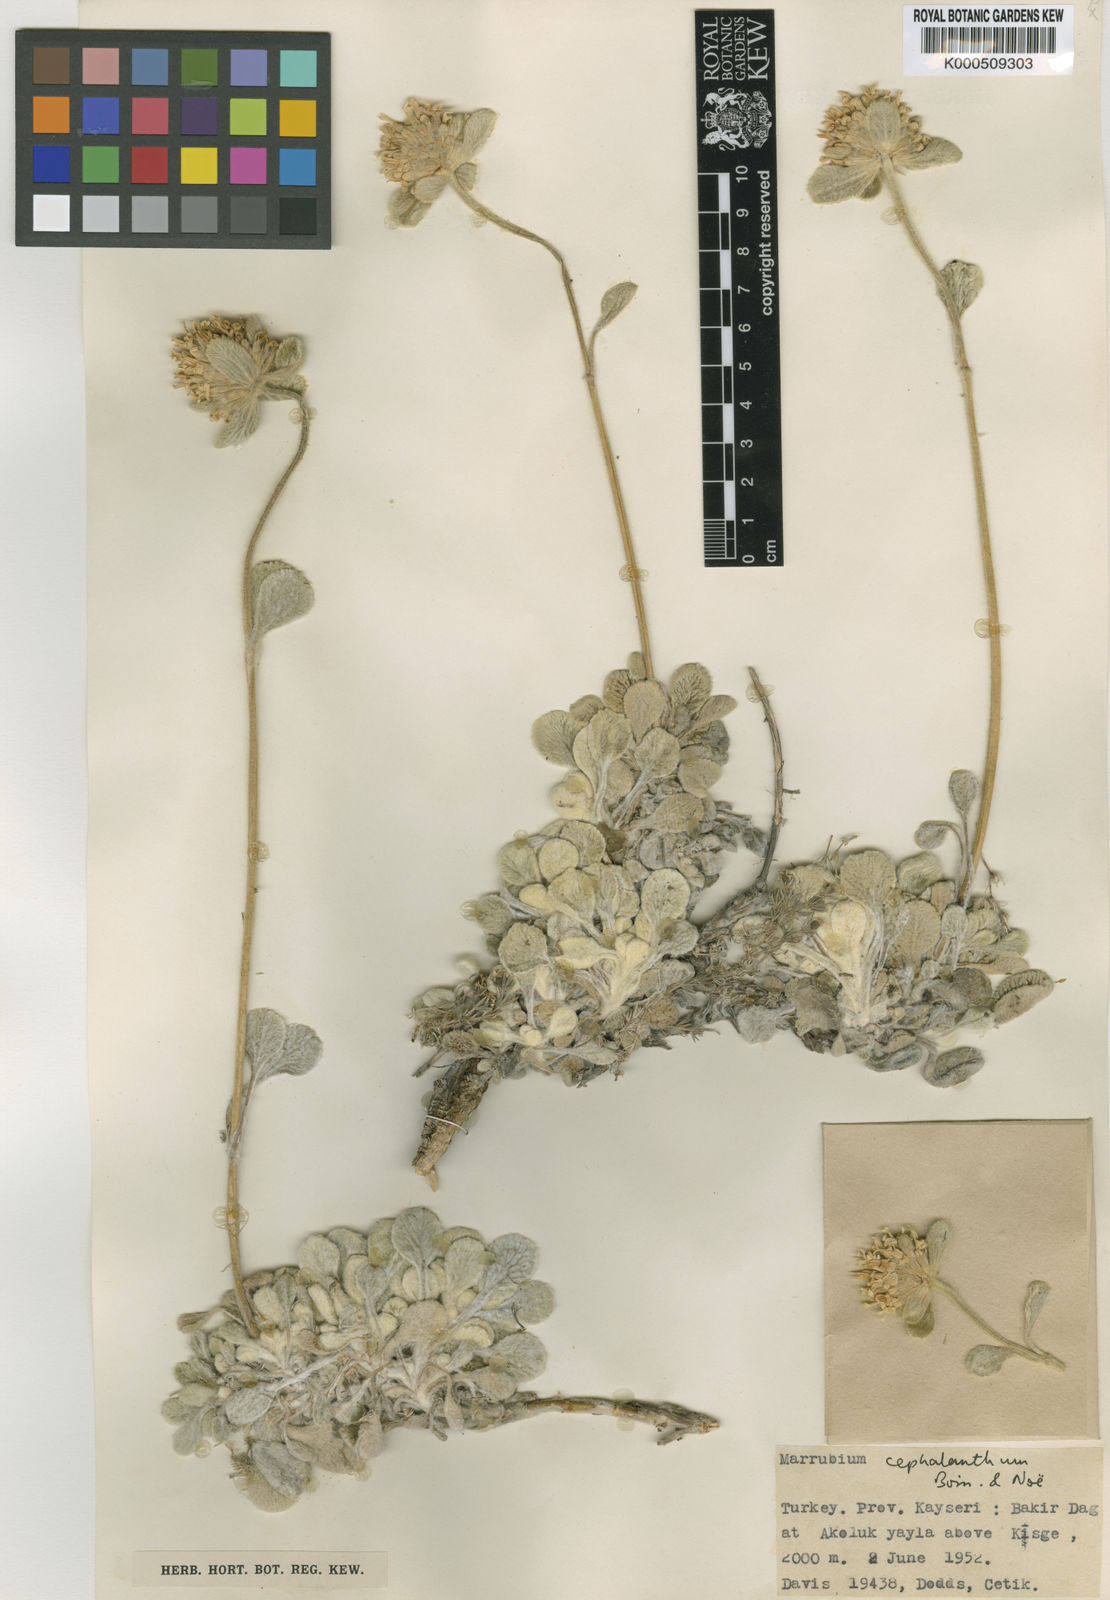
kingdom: Plantae
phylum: Tracheophyta
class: Magnoliopsida
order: Lamiales
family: Lamiaceae
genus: Marrubium
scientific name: Marrubium
